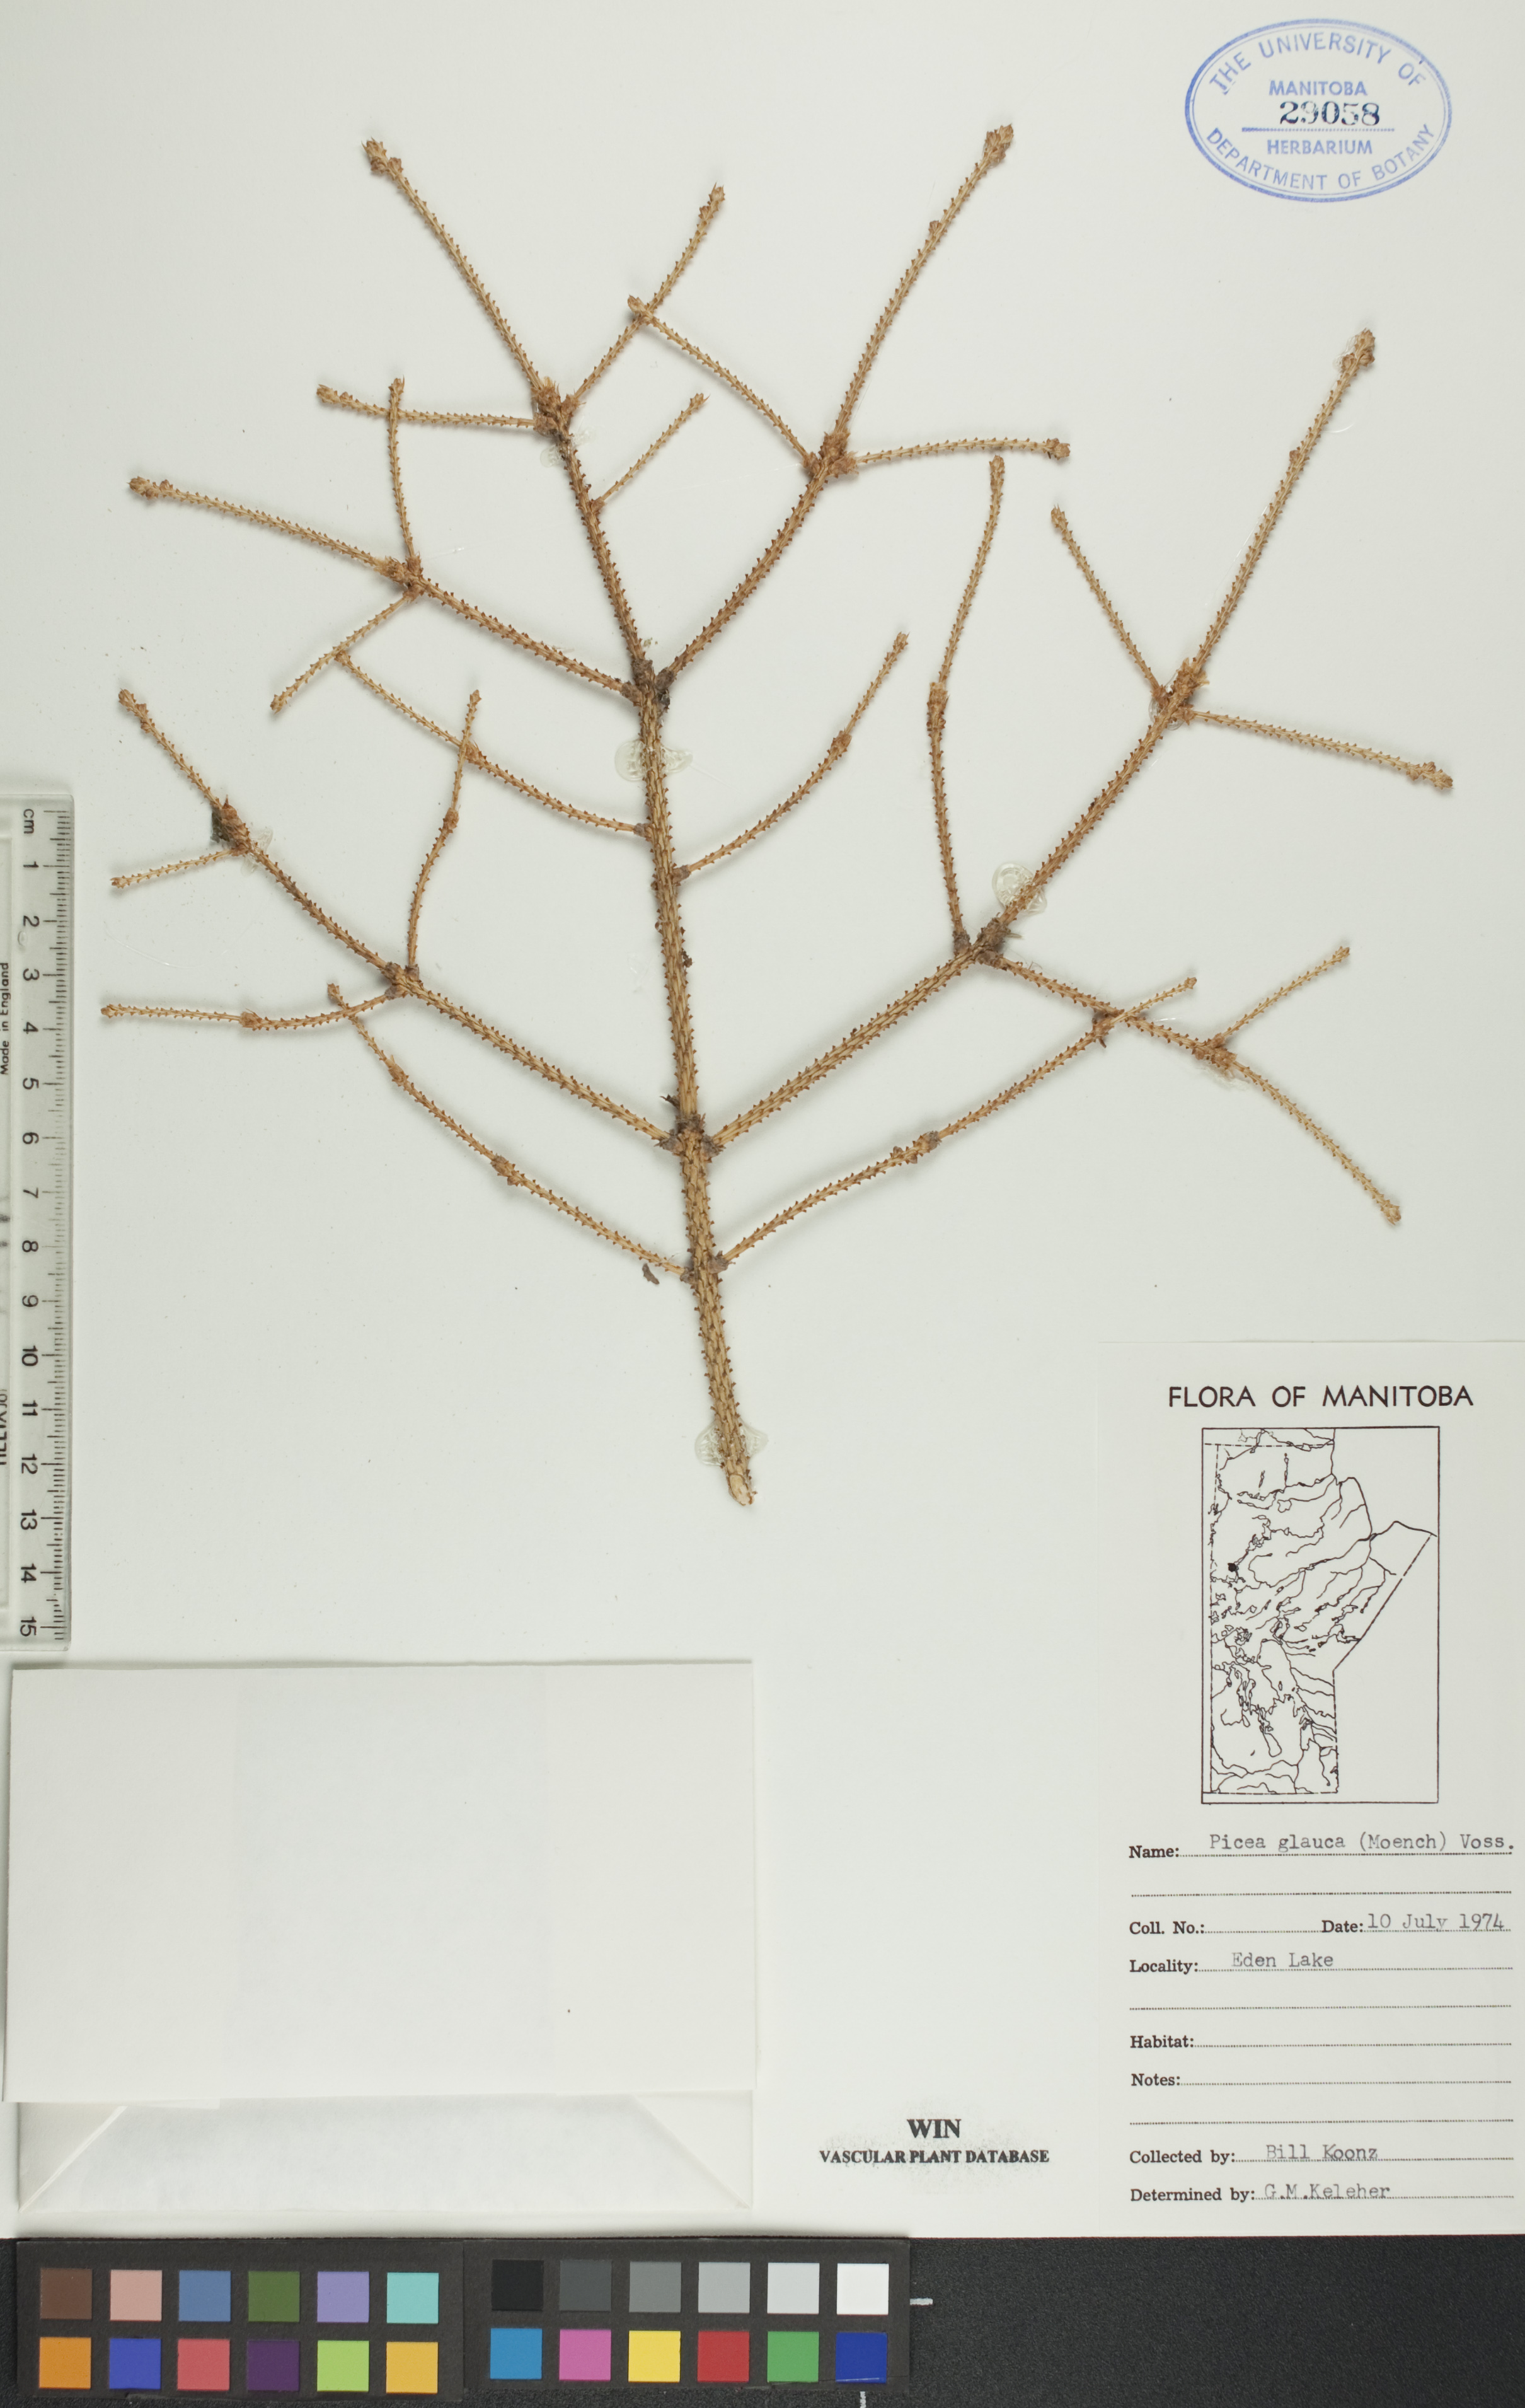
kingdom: Plantae
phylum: Tracheophyta
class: Pinopsida
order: Pinales
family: Pinaceae
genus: Picea
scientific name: Picea glauca
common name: White spruce
